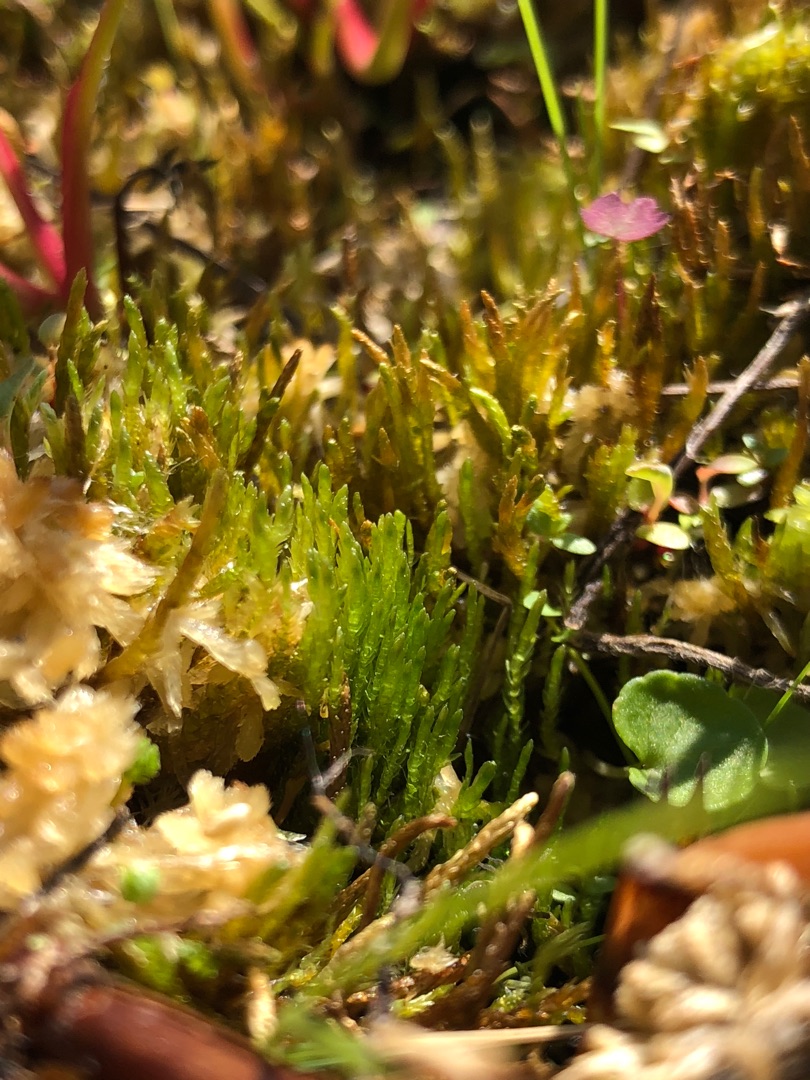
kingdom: Plantae
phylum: Bryophyta
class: Bryopsida
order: Hypnales
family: Calliergonaceae
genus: Straminergon
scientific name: Straminergon stramineum
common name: Tråd-skebladsmos
